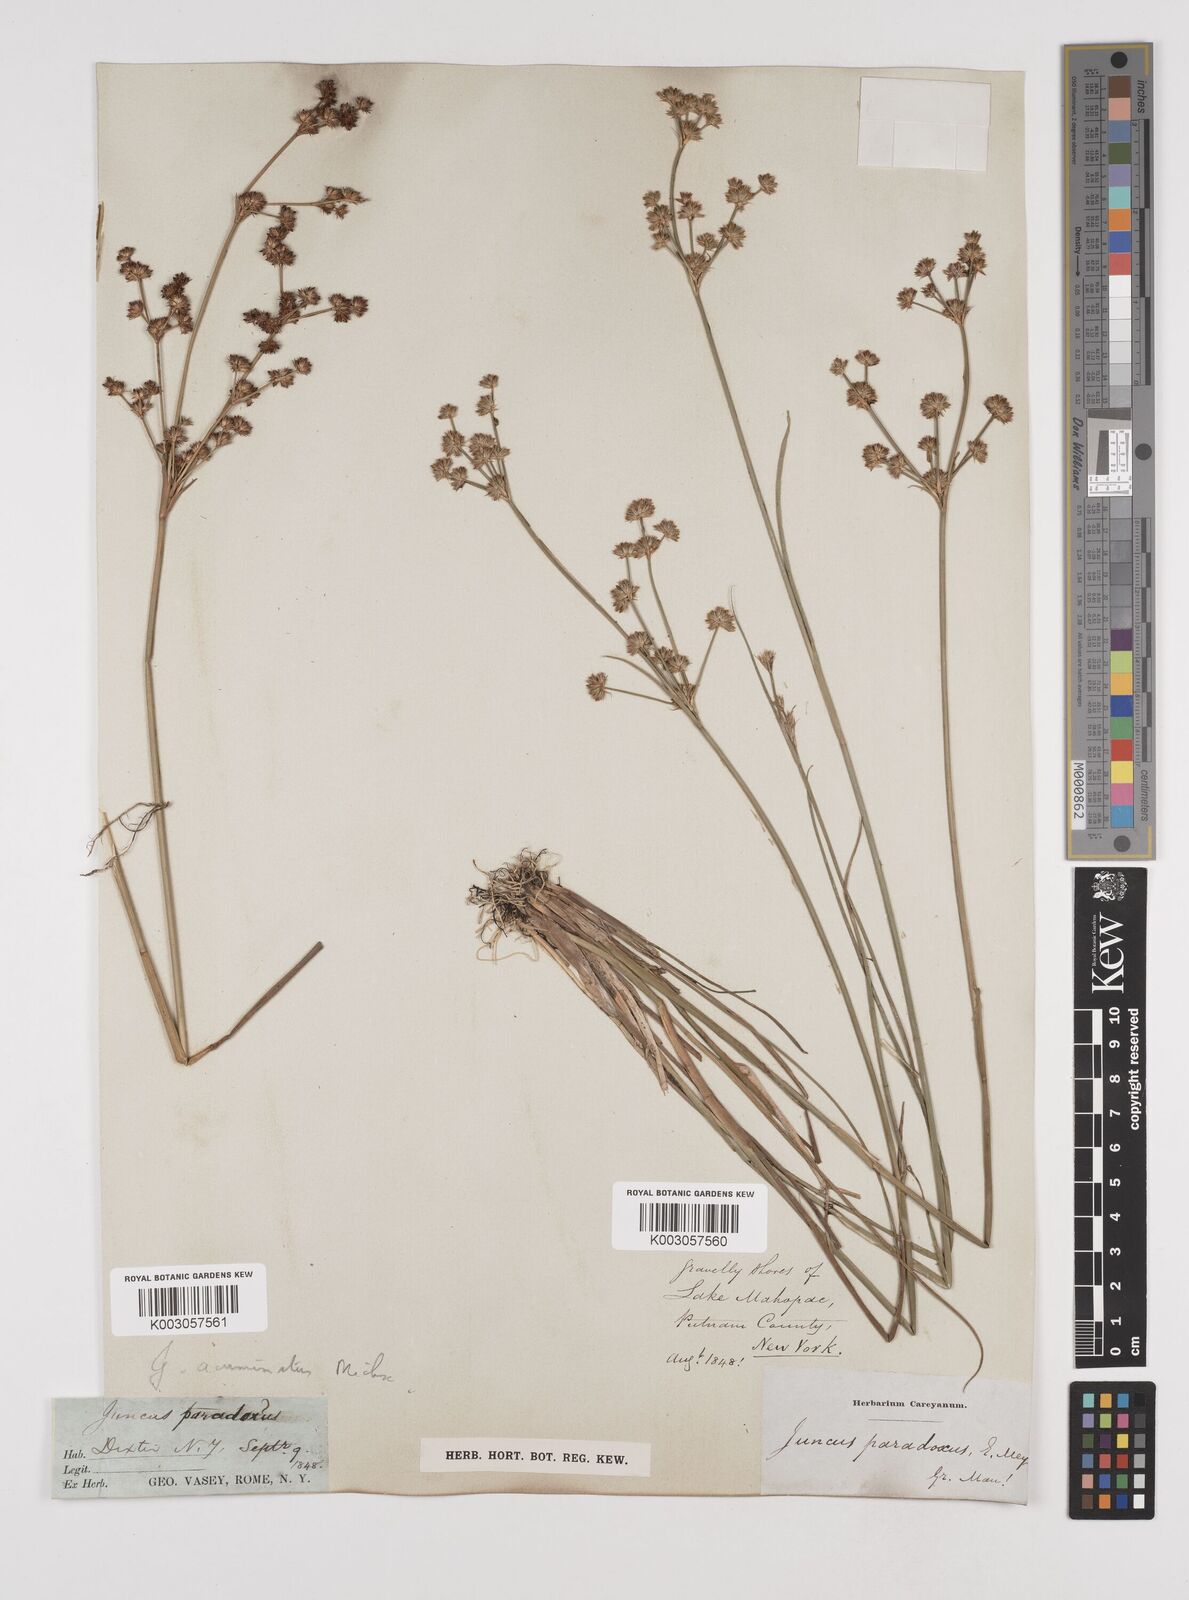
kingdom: Plantae
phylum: Tracheophyta
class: Liliopsida
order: Poales
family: Juncaceae
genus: Juncus
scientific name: Juncus acuminatus
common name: Knotty-leaved rush
